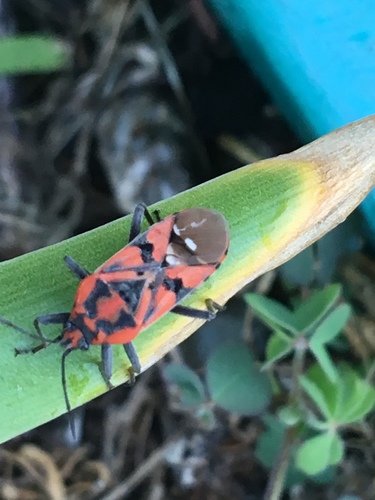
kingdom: Animalia
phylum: Arthropoda
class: Insecta
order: Hemiptera
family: Lygaeidae
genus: Spilostethus
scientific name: Spilostethus pandurus
